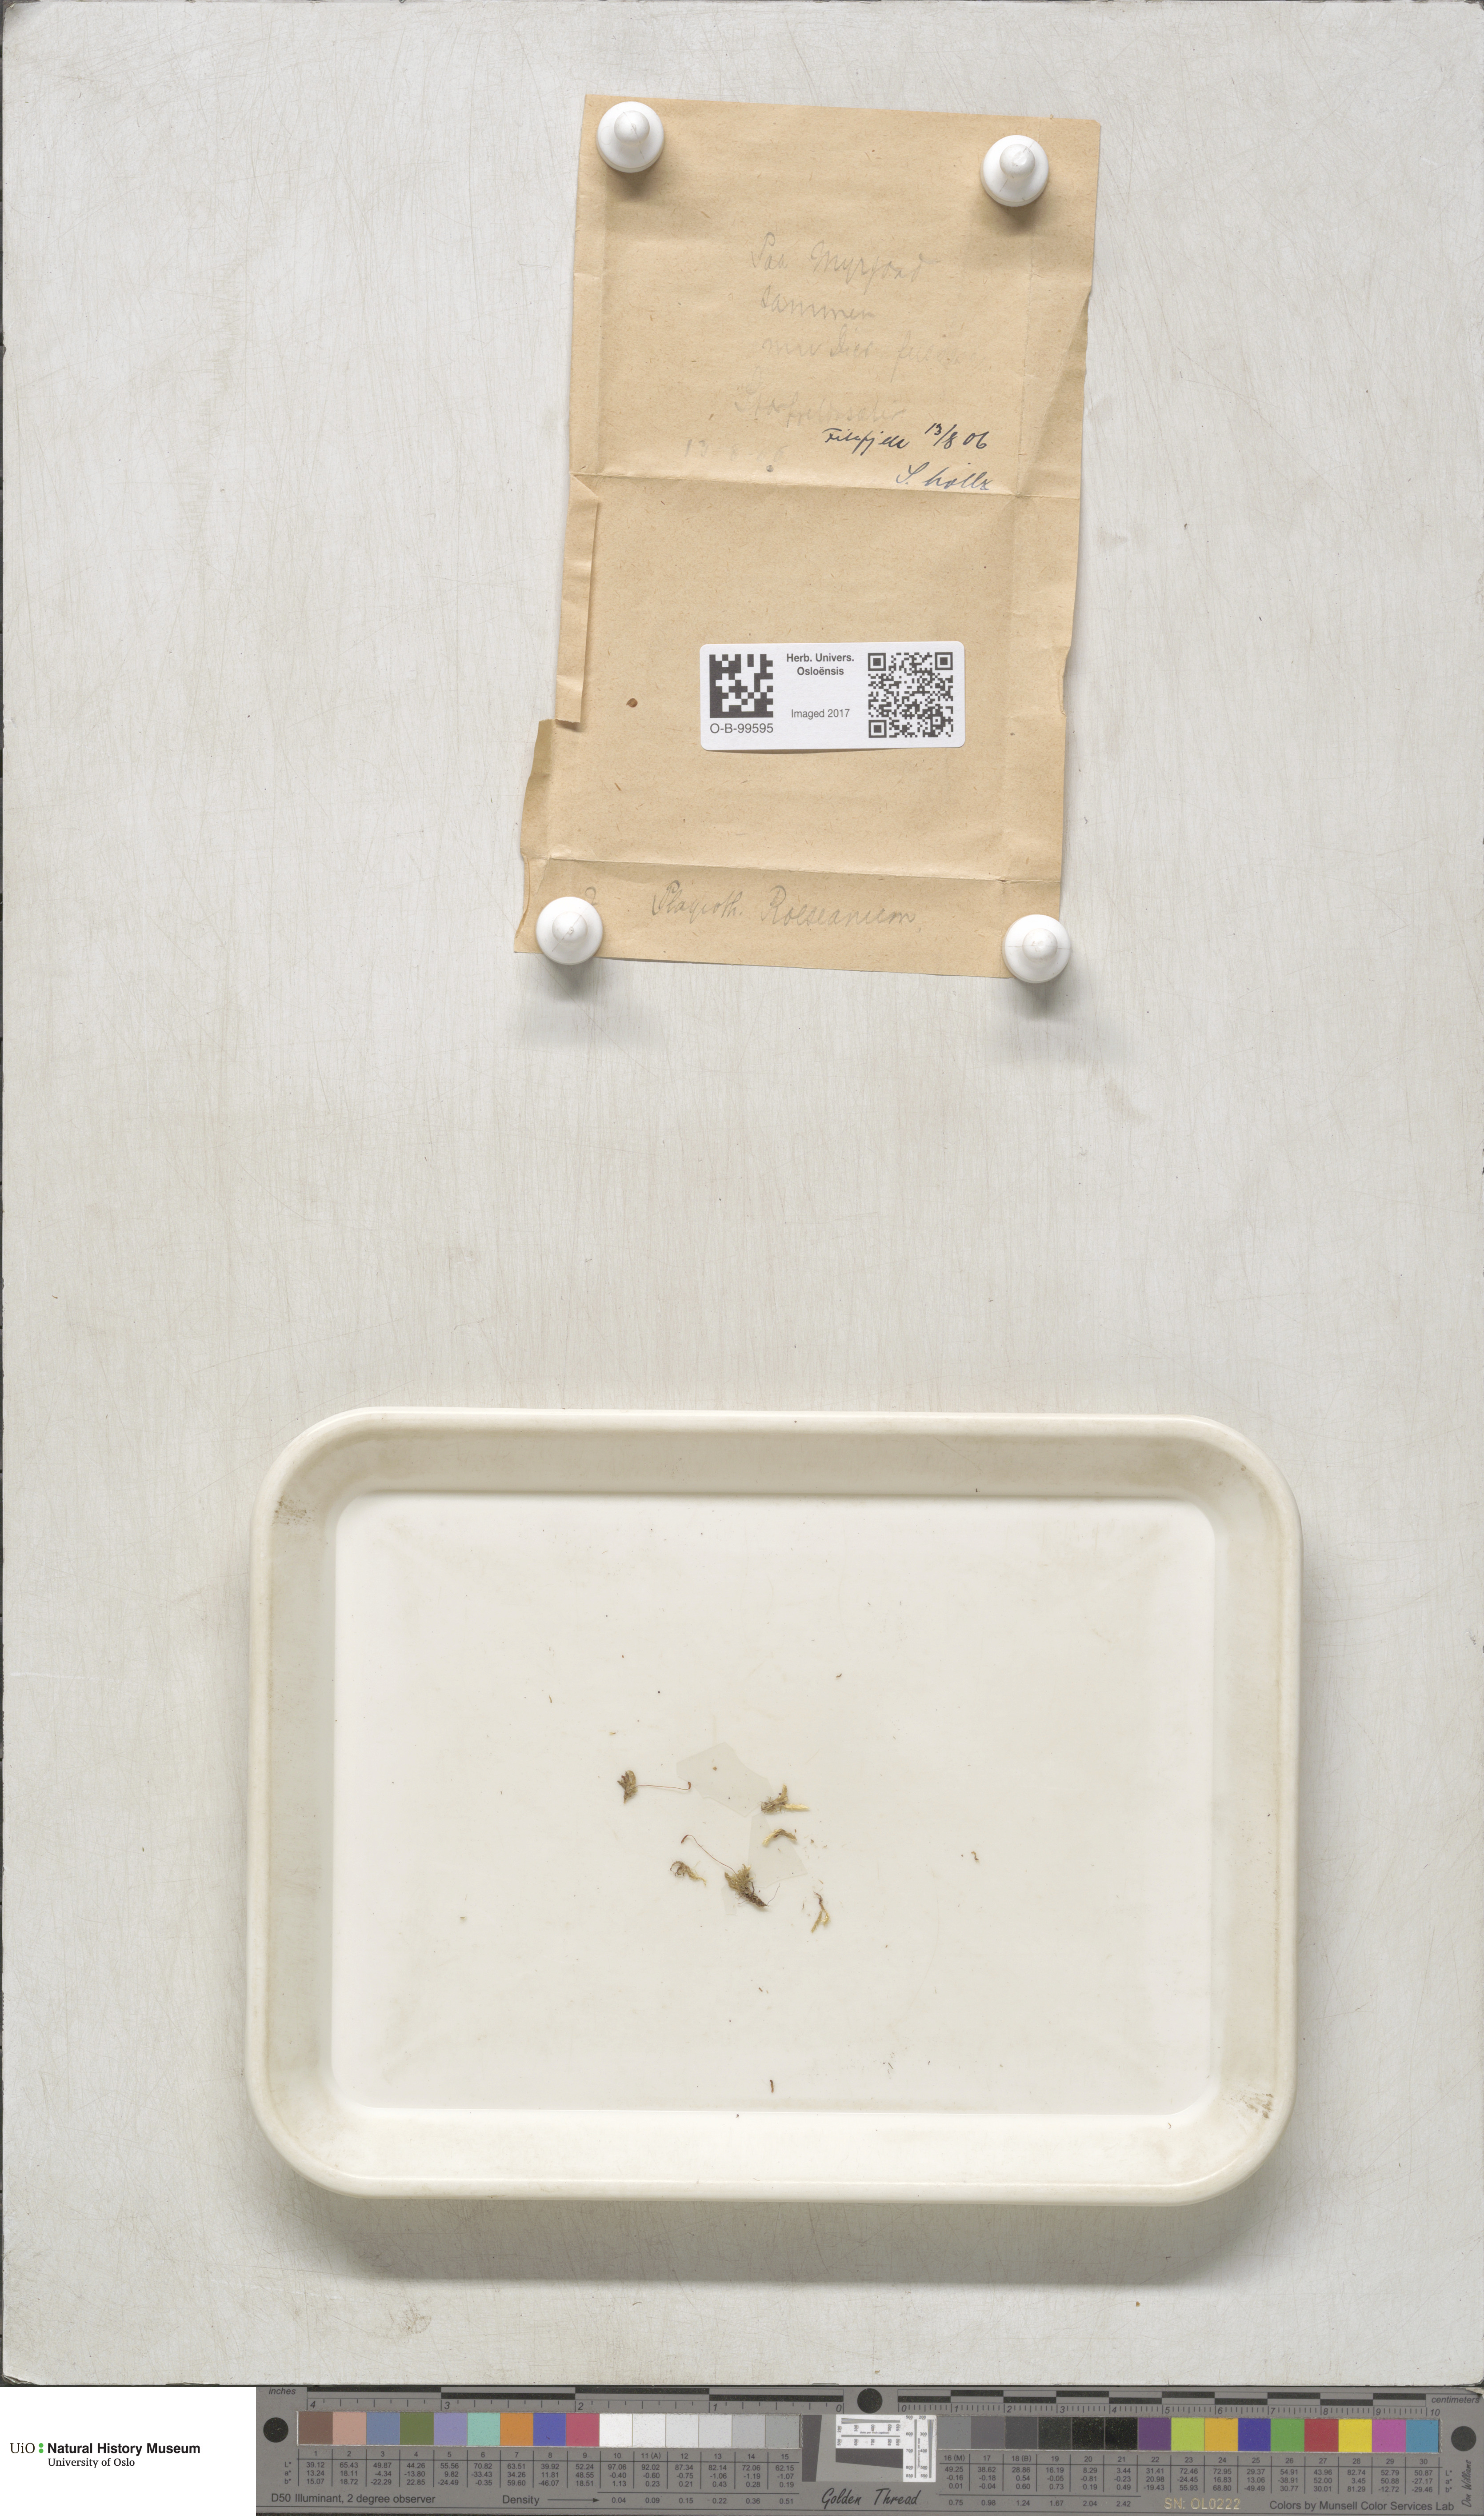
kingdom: Plantae
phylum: Bryophyta
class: Bryopsida
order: Bartramiales
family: Bartramiaceae
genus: Plagiopus
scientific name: Plagiopus oederianus
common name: Oeder's apple moss
